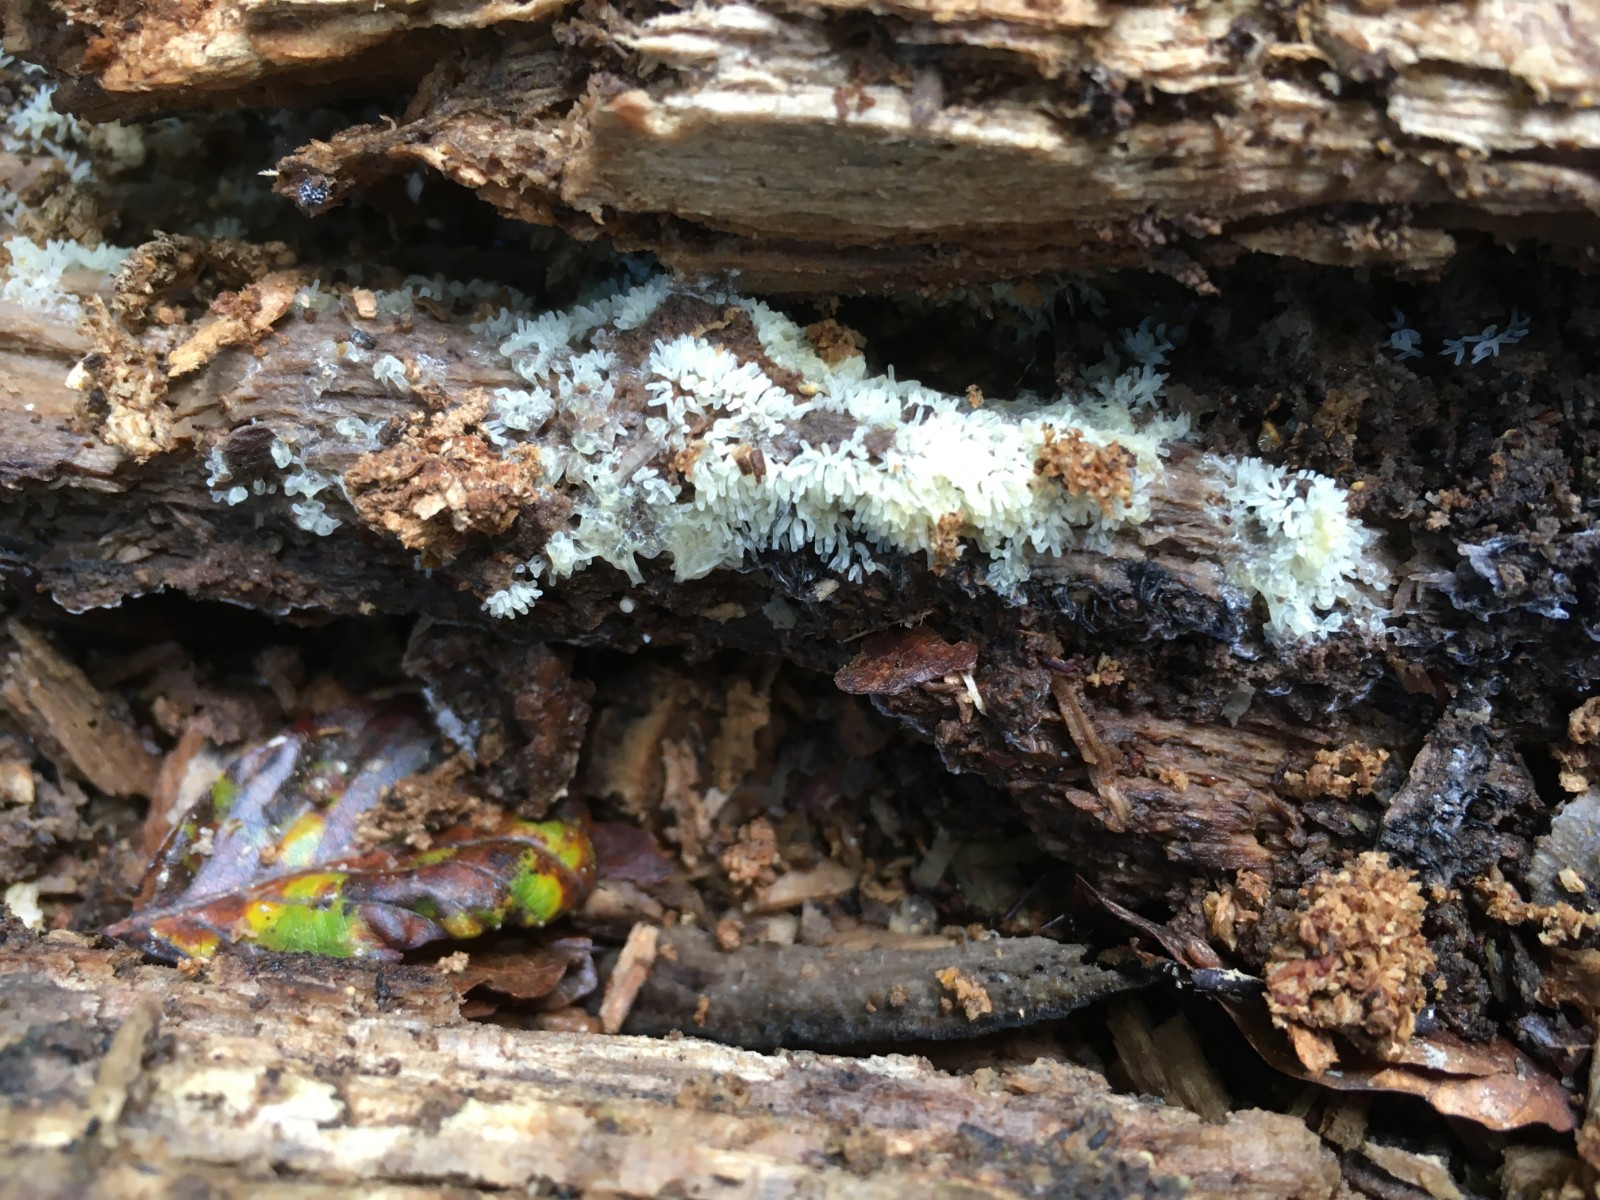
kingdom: Protozoa
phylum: Mycetozoa
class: Protosteliomycetes
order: Ceratiomyxales
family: Ceratiomyxaceae
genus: Ceratiomyxa
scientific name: Ceratiomyxa fruticulosa
